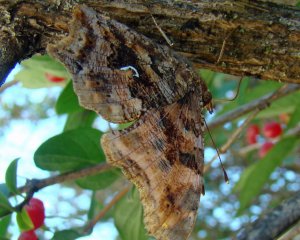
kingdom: Animalia
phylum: Arthropoda
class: Insecta
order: Lepidoptera
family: Nymphalidae
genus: Polygonia
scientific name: Polygonia comma
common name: Eastern Comma
